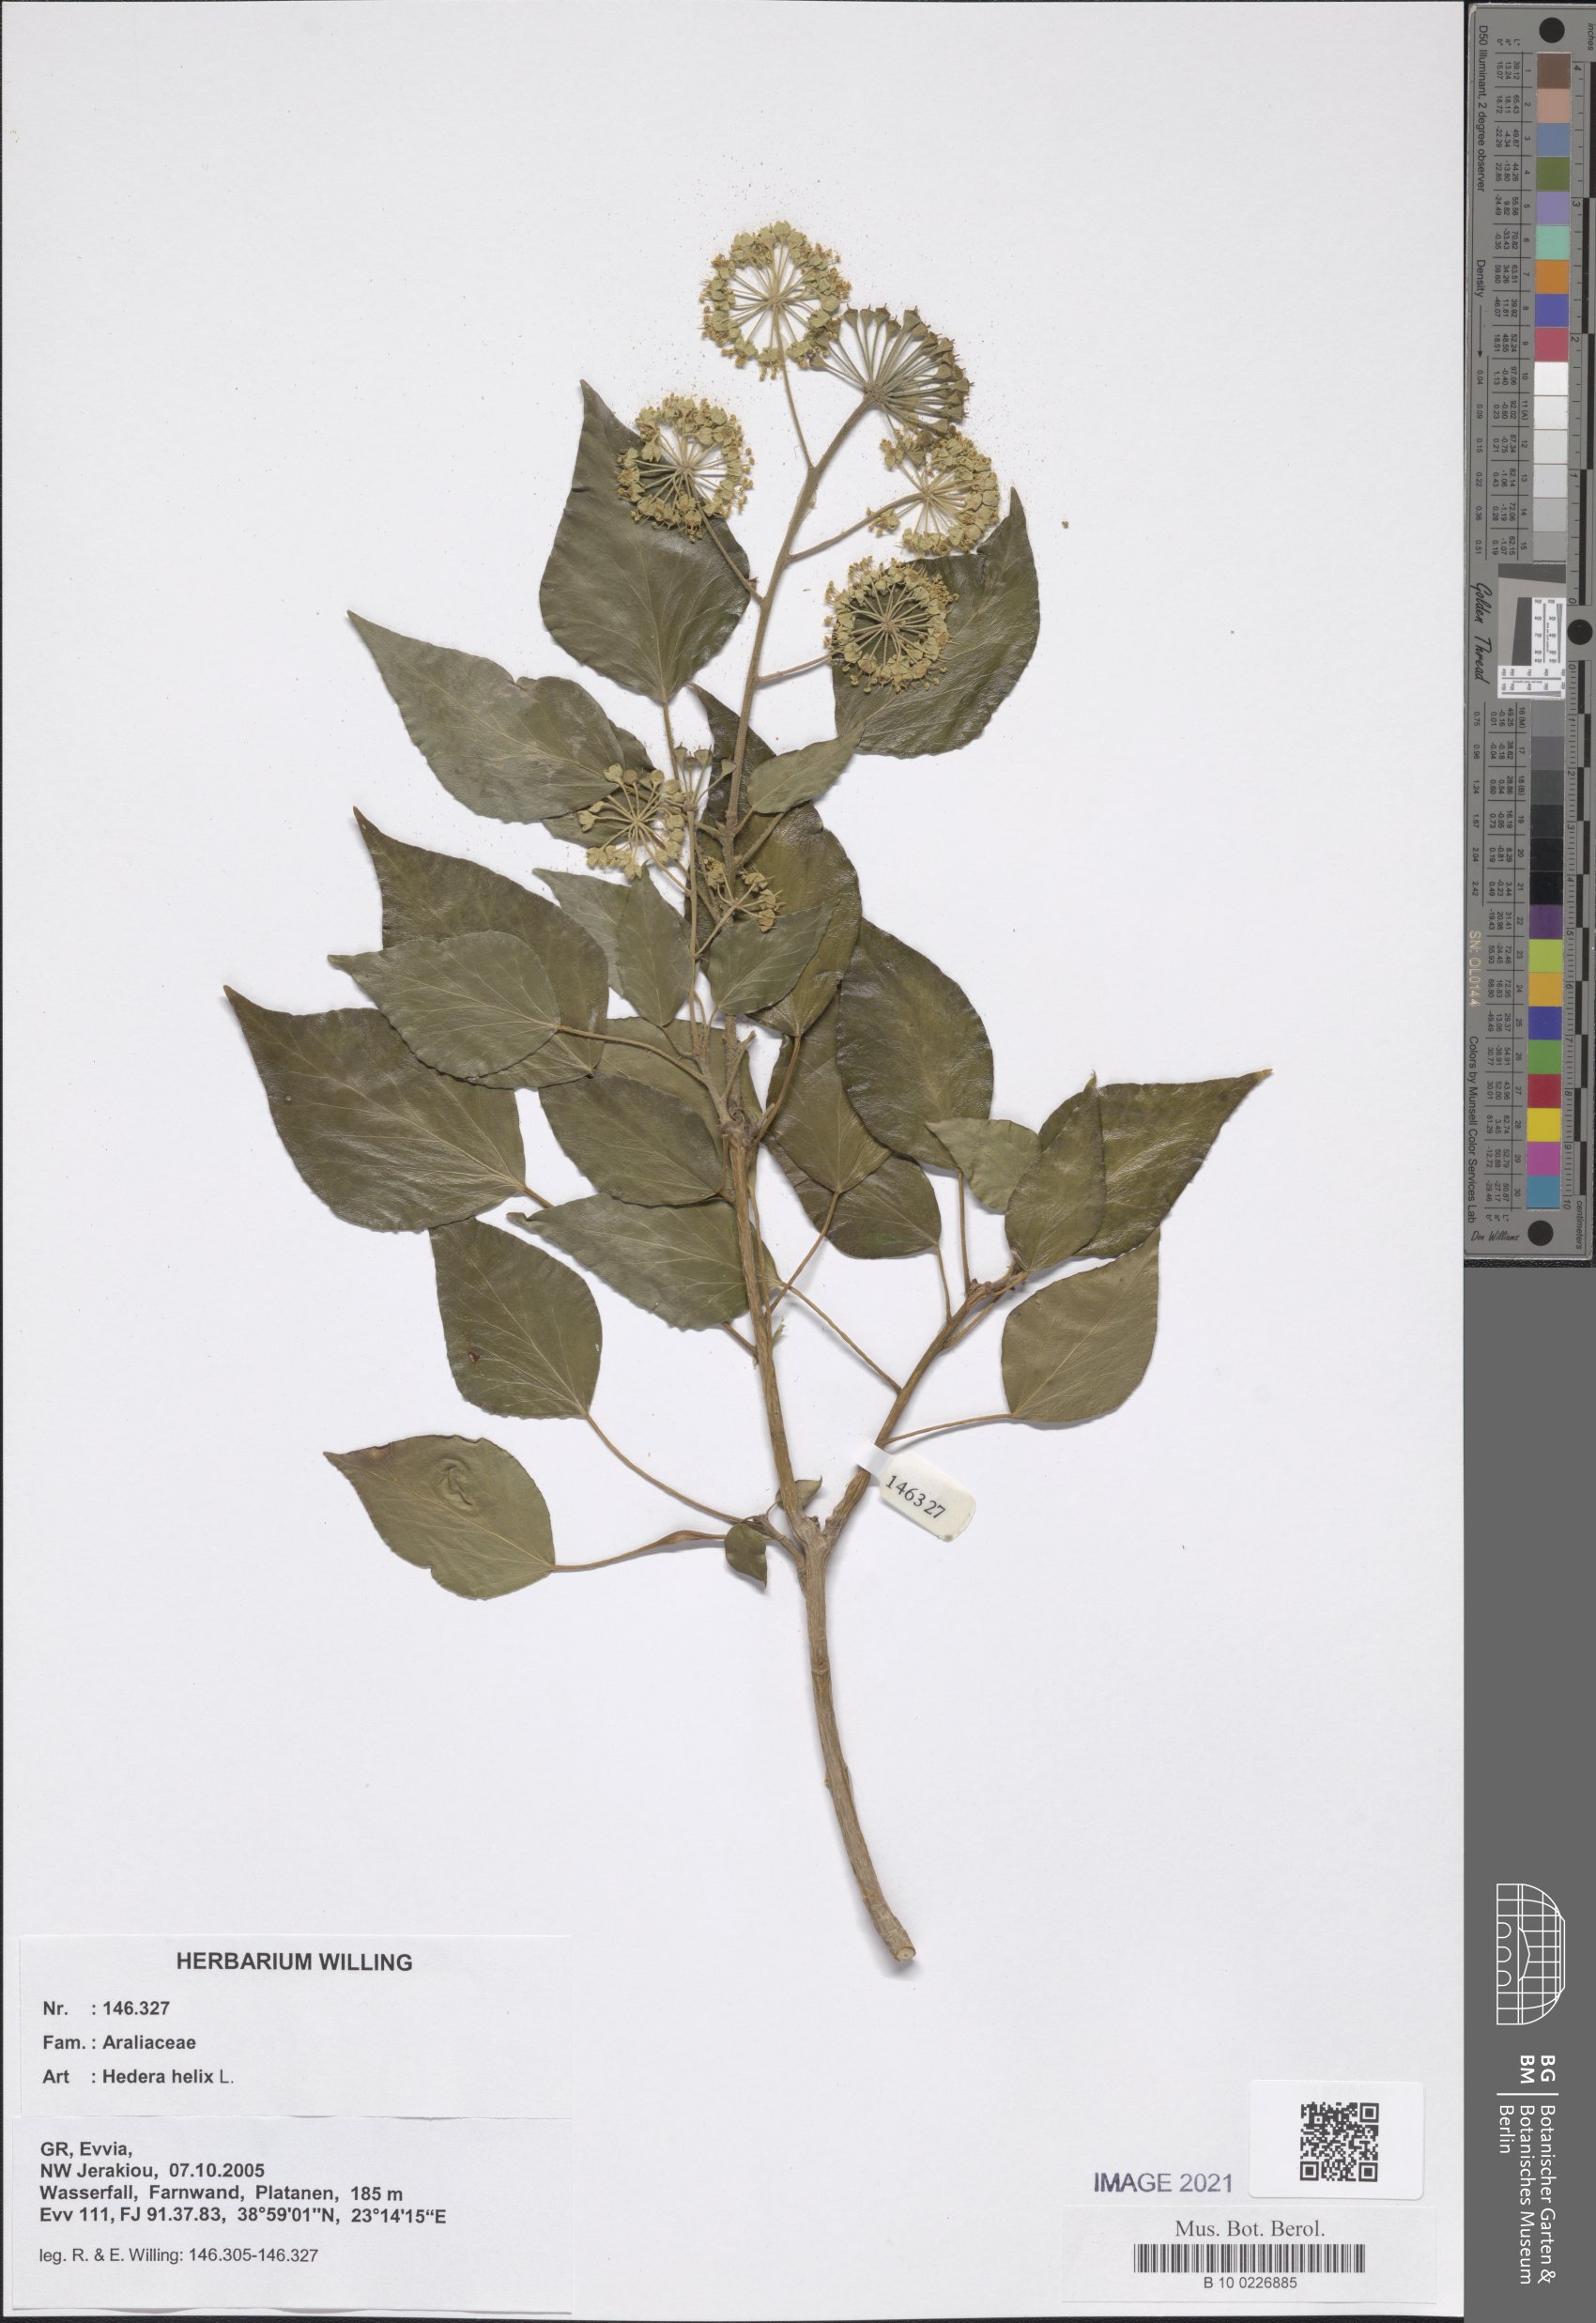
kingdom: Plantae
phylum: Tracheophyta
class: Magnoliopsida
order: Apiales
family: Araliaceae
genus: Hedera
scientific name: Hedera helix
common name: Ivy
